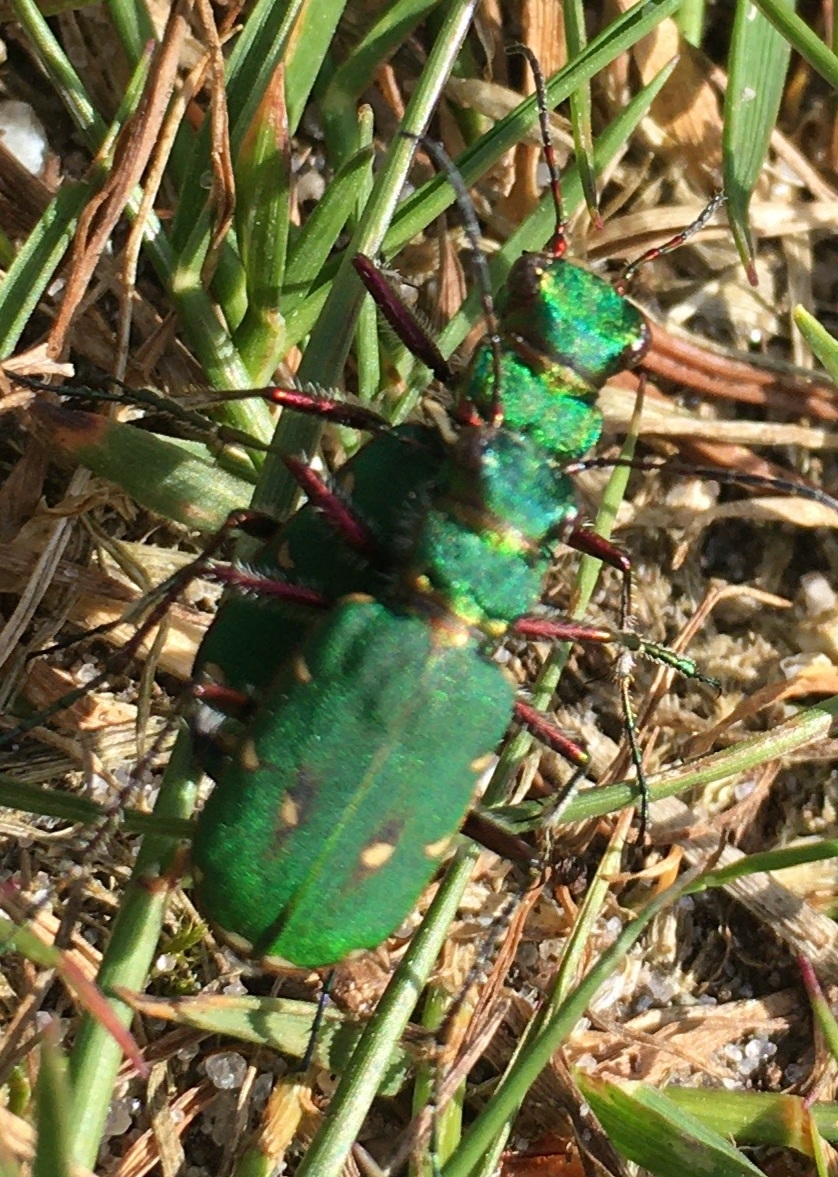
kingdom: Animalia
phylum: Arthropoda
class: Insecta
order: Coleoptera
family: Carabidae
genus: Cicindela
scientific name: Cicindela campestris
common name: Grøn sandspringer
